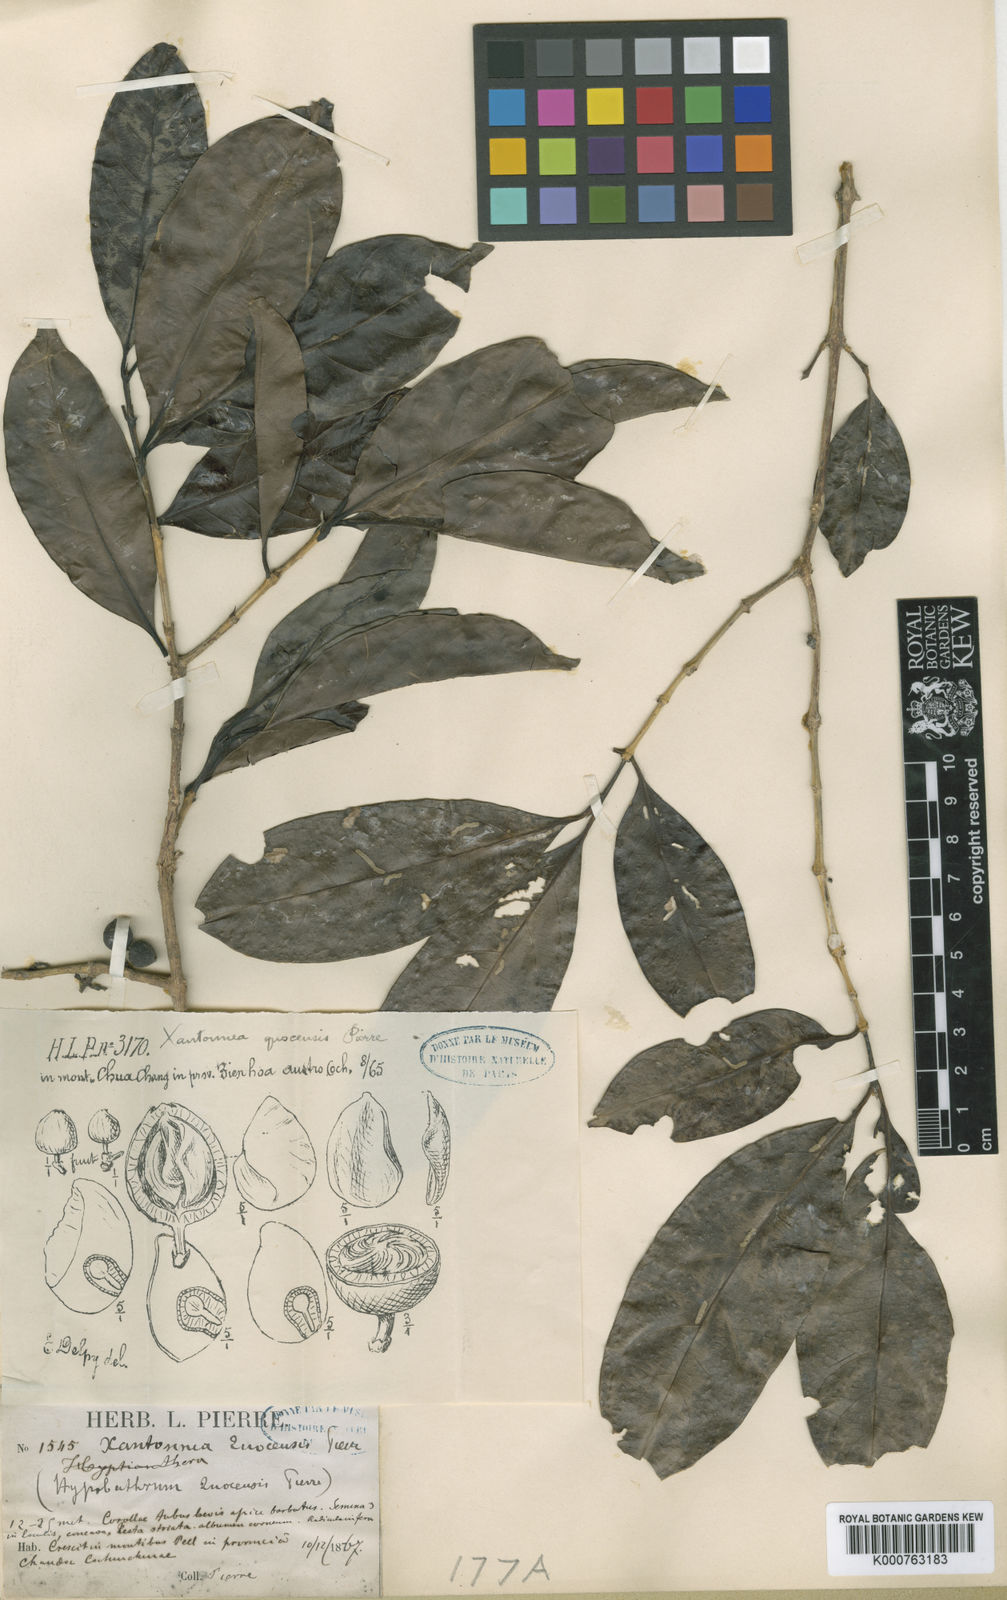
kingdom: Plantae
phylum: Tracheophyta
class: Magnoliopsida
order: Gentianales
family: Rubiaceae
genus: Discospermum
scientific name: Discospermum quocensis
